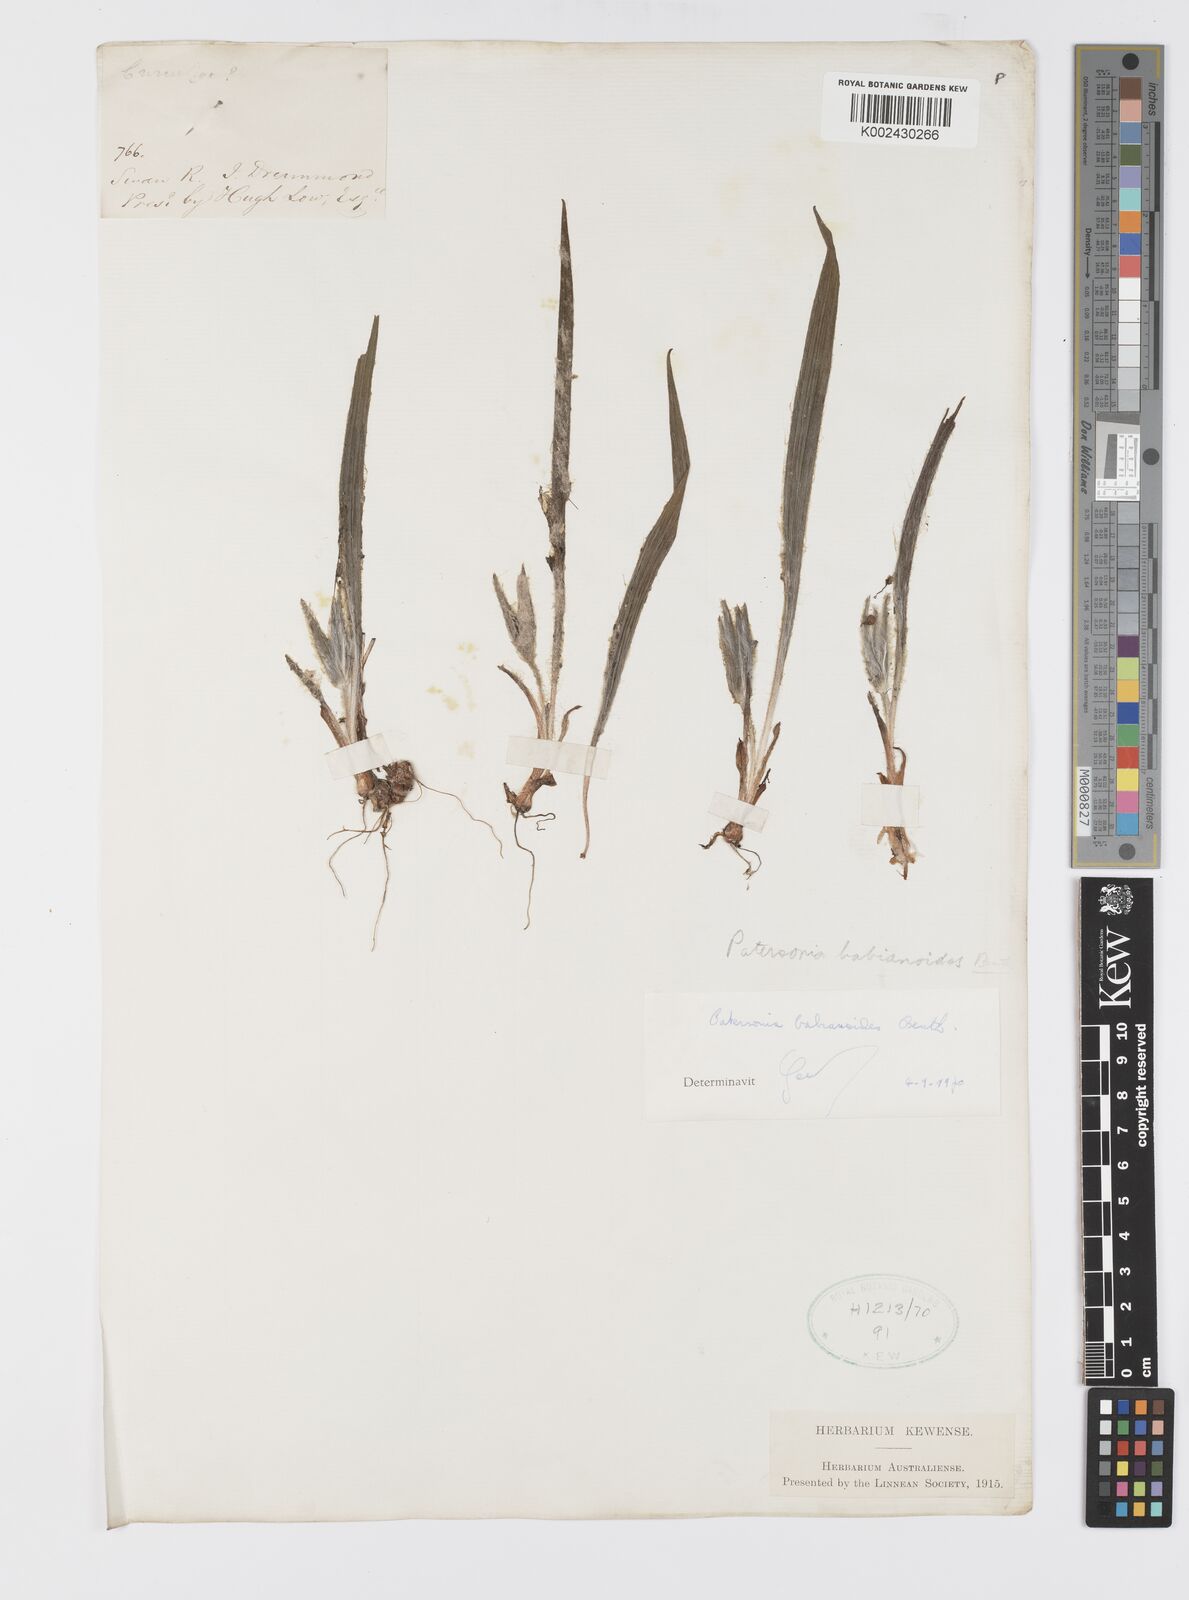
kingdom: Plantae
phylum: Tracheophyta
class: Liliopsida
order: Asparagales
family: Iridaceae
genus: Patersonia
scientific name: Patersonia babianoides
